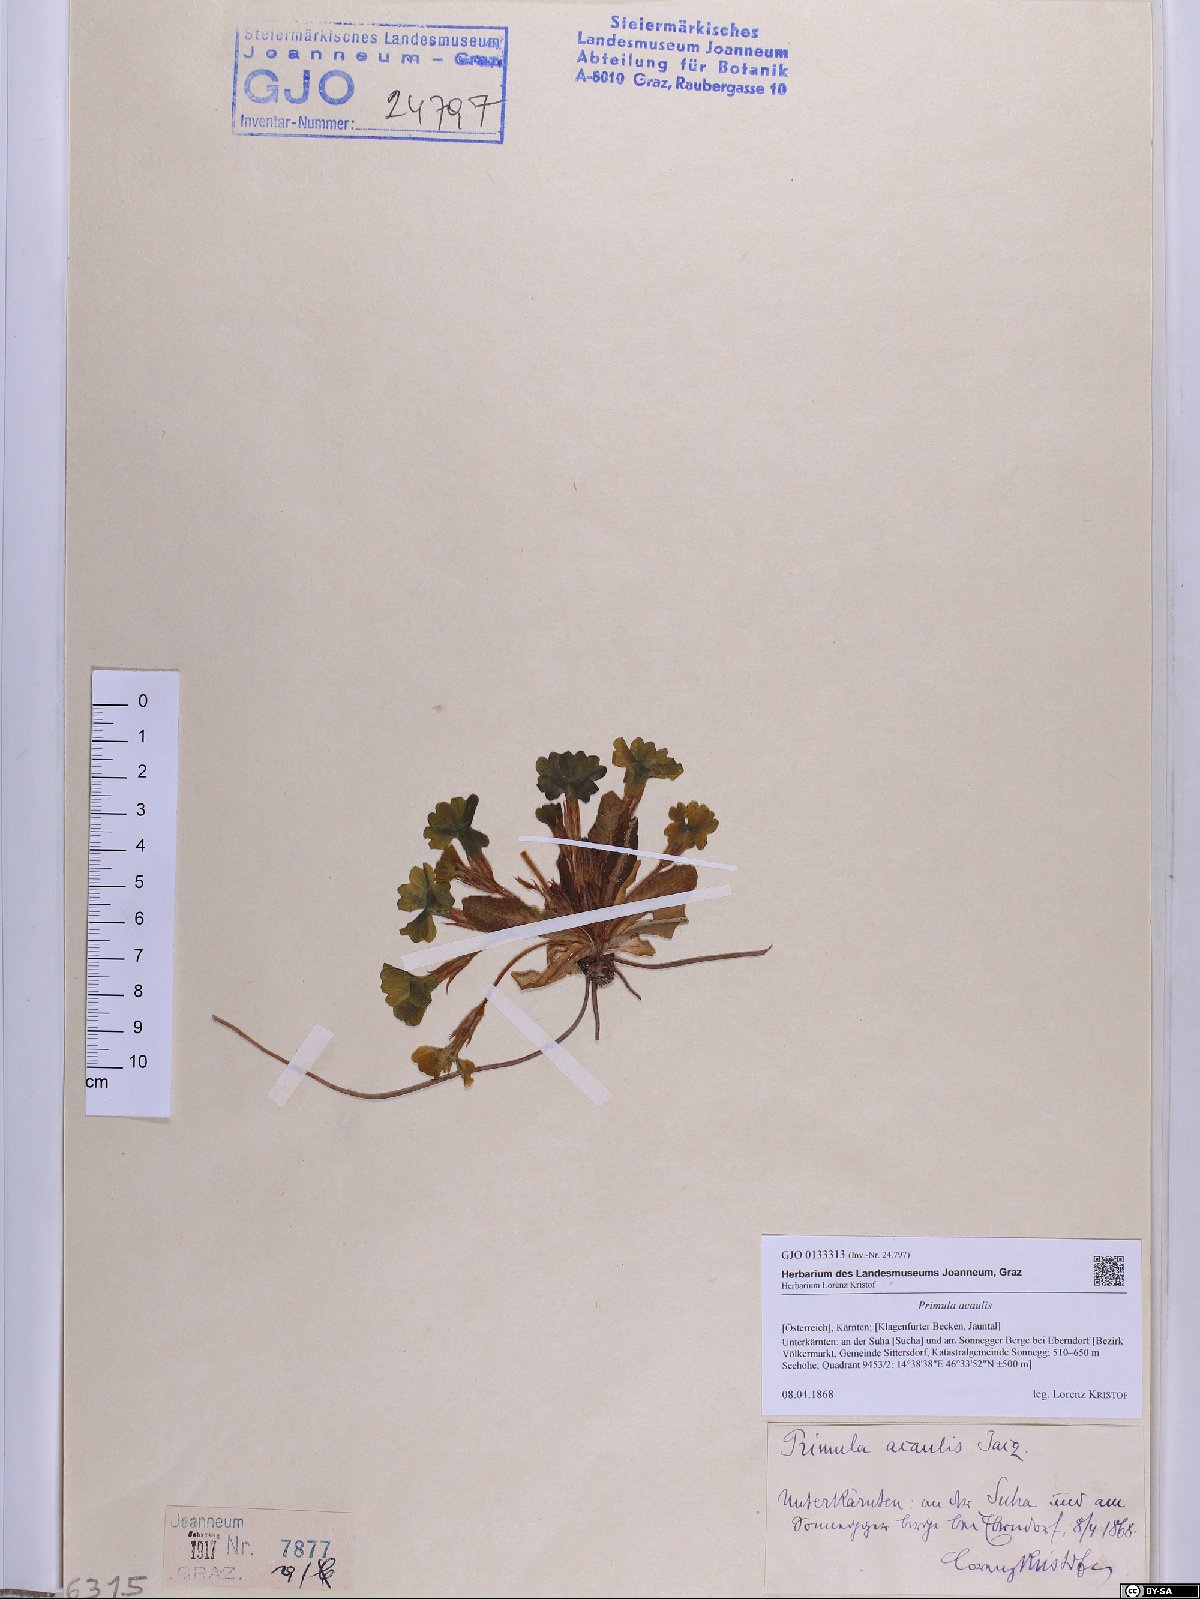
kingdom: Plantae
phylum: Tracheophyta
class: Magnoliopsida
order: Ericales
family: Primulaceae
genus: Primula
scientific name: Primula vulgaris
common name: Primrose
